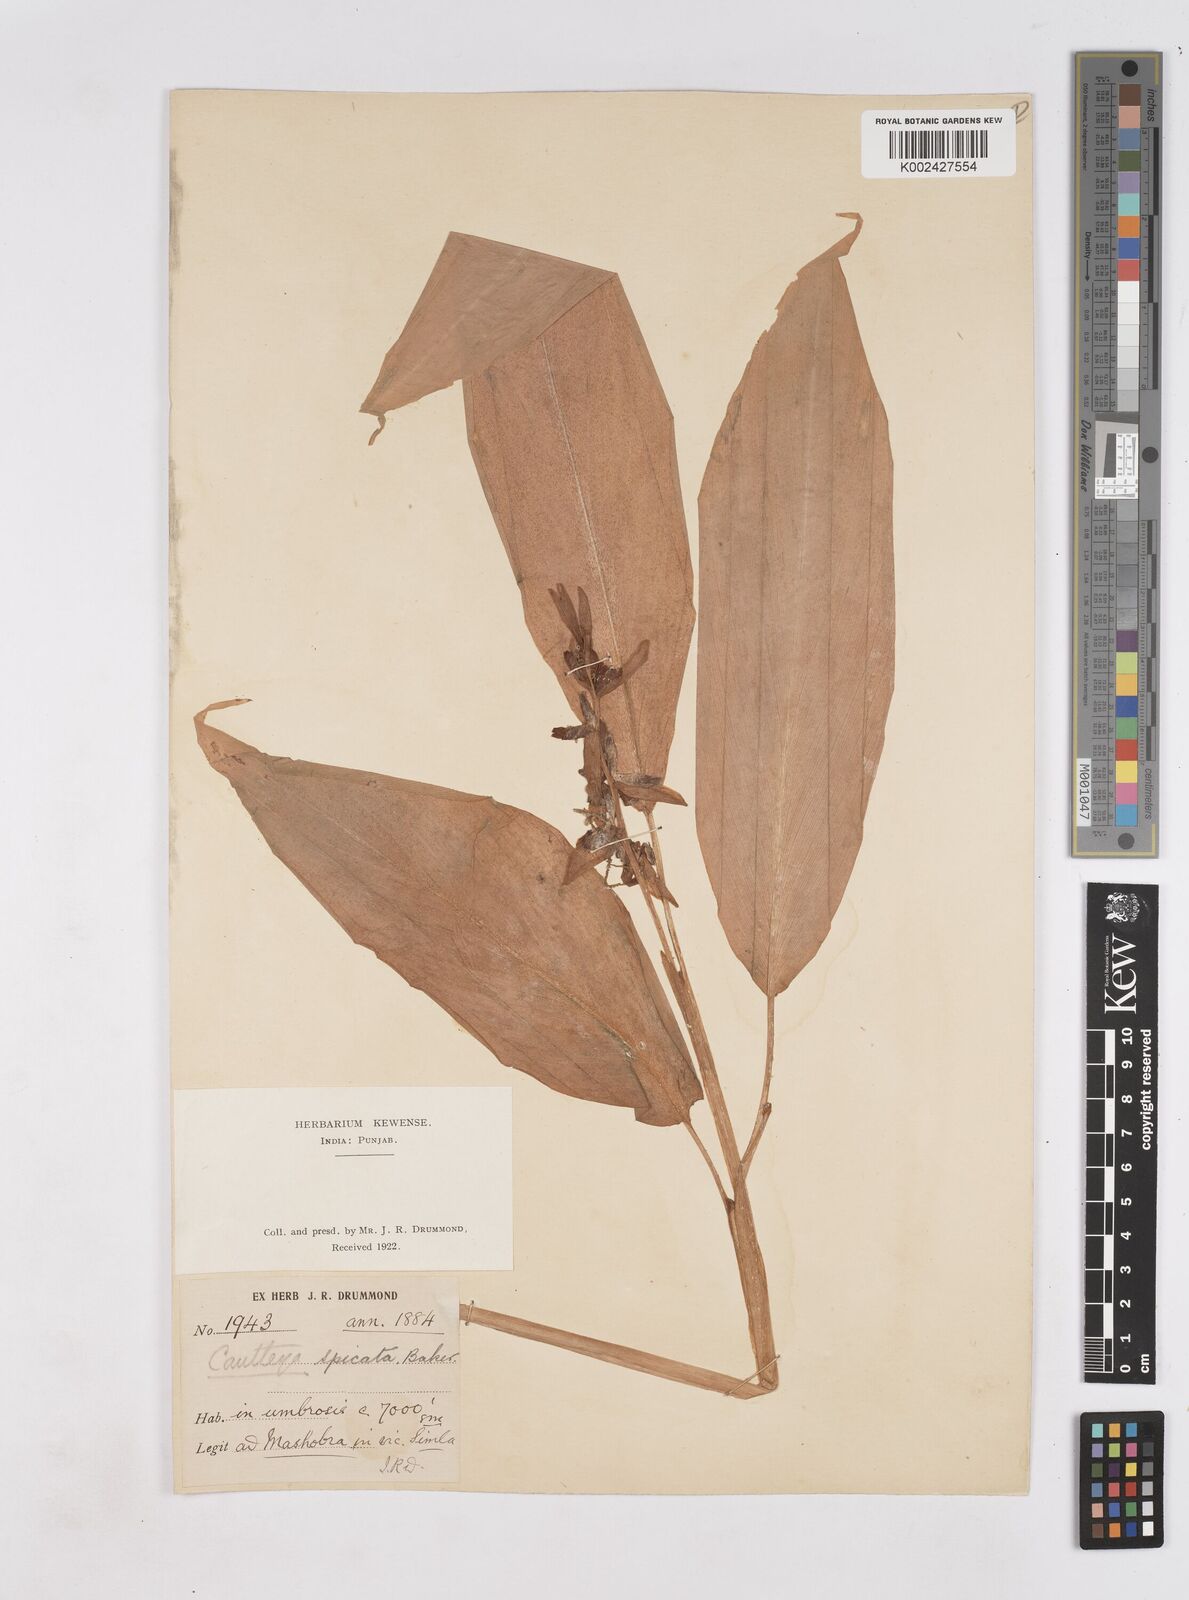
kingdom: Plantae
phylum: Tracheophyta
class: Liliopsida
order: Zingiberales
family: Zingiberaceae
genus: Cautleya
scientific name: Cautleya spicata
